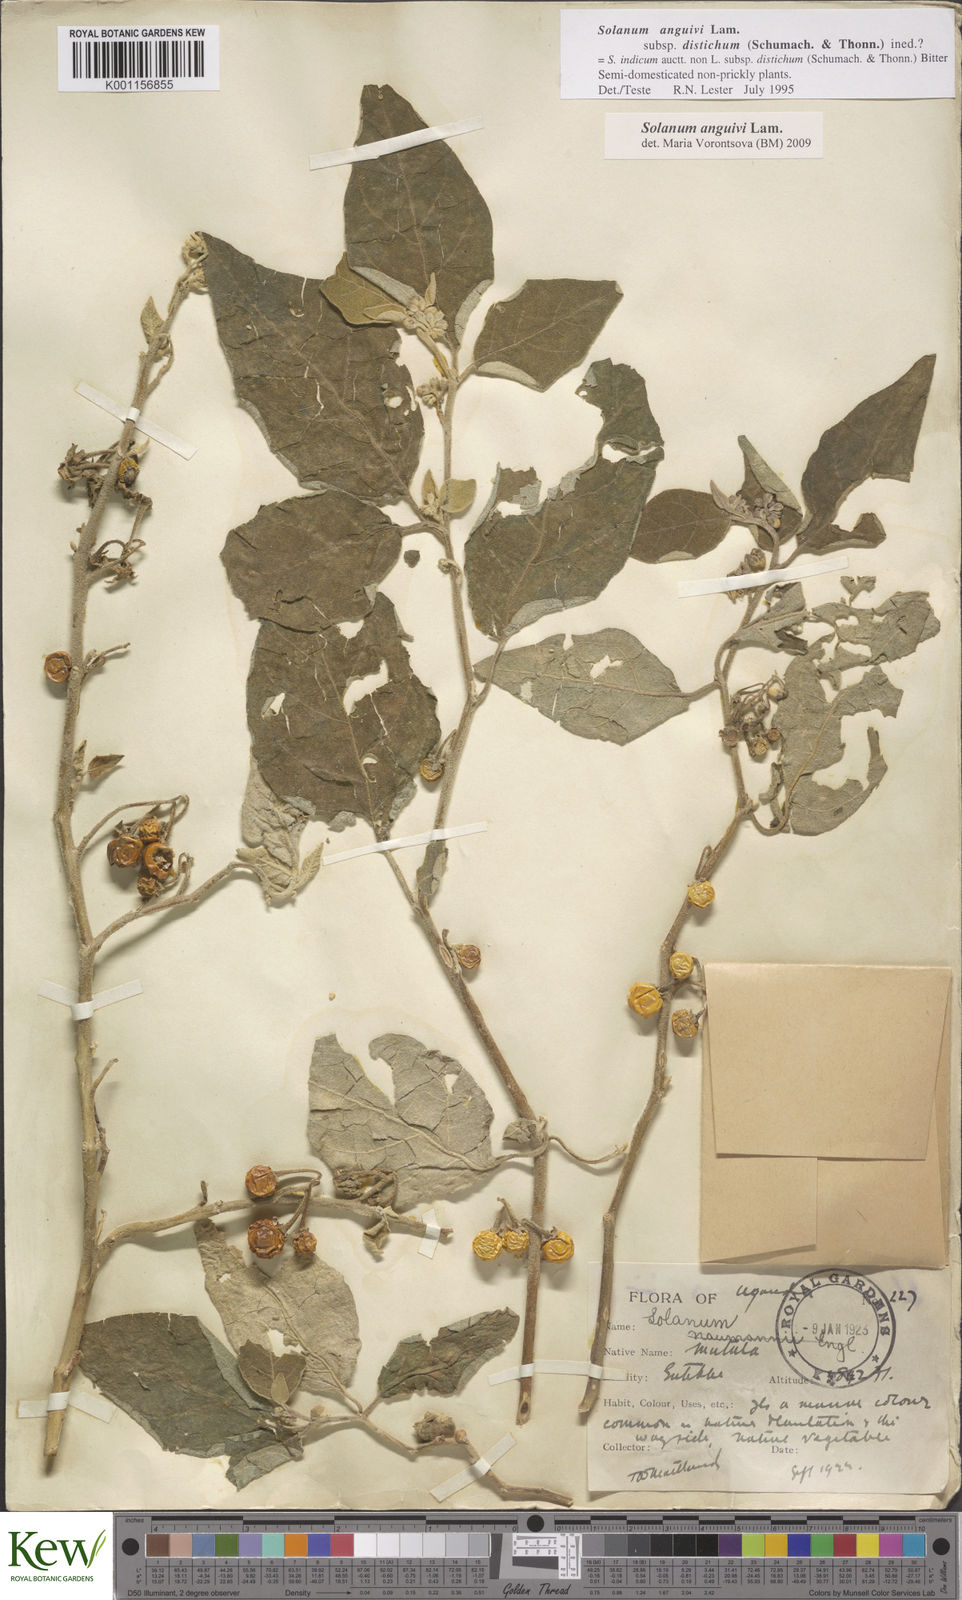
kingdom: Plantae
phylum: Tracheophyta
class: Magnoliopsida
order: Solanales
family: Solanaceae
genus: Solanum
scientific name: Solanum anguivi
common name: Forest bitterberry
